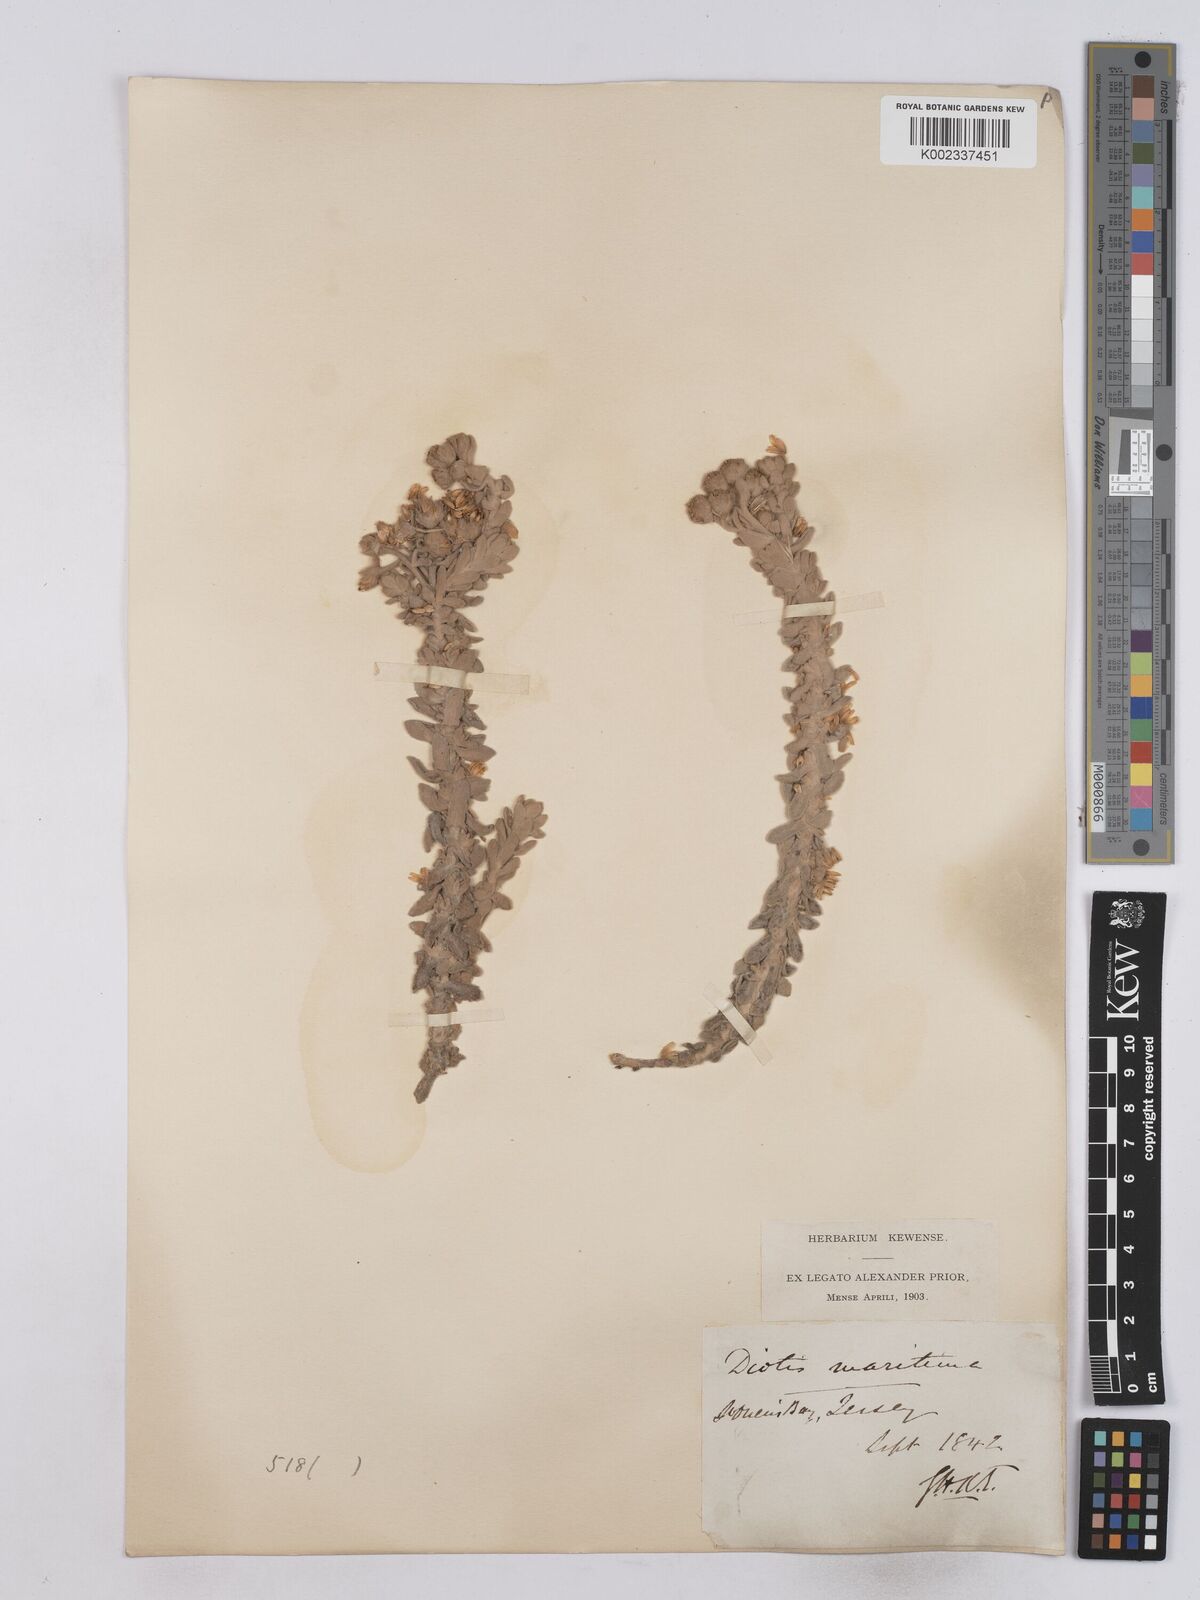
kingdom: Plantae
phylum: Tracheophyta
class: Magnoliopsida
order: Asterales
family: Asteraceae
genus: Achillea
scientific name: Achillea maritima
